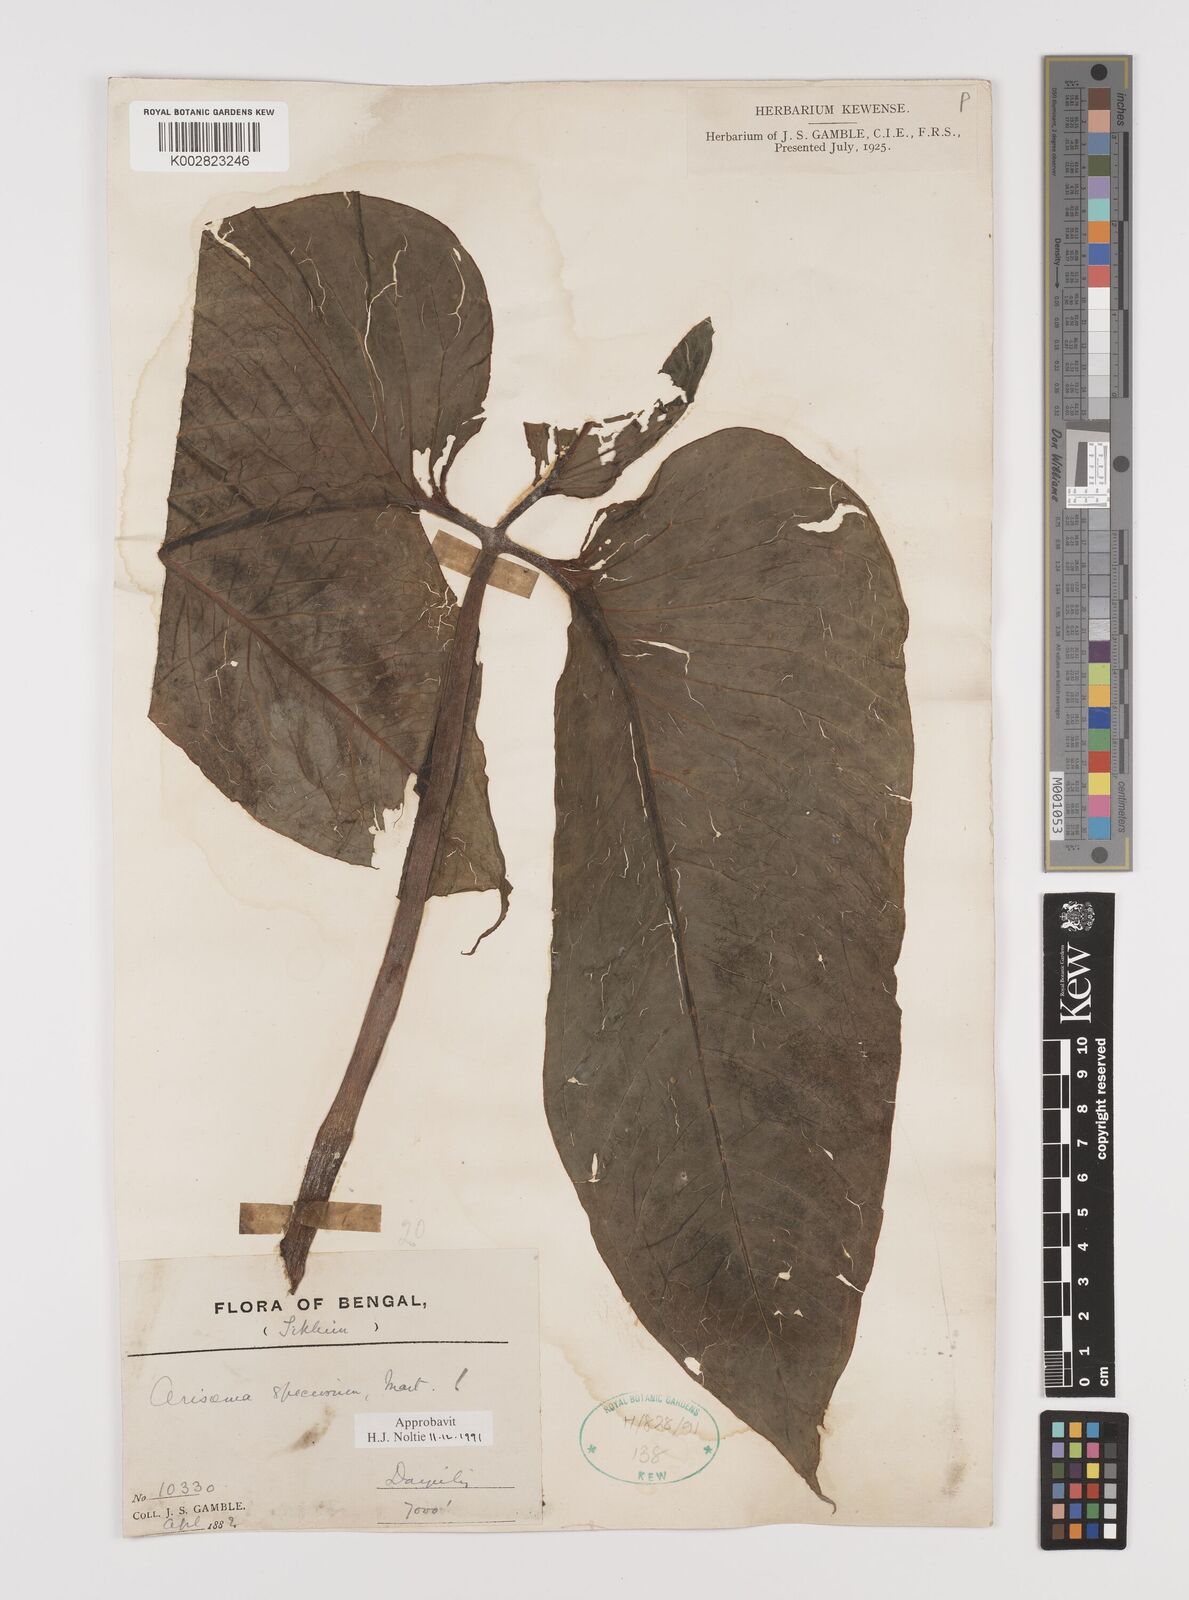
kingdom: Plantae
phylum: Tracheophyta
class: Liliopsida
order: Alismatales
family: Araceae
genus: Arisaema
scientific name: Arisaema speciosum
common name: Showy cobra-lily
